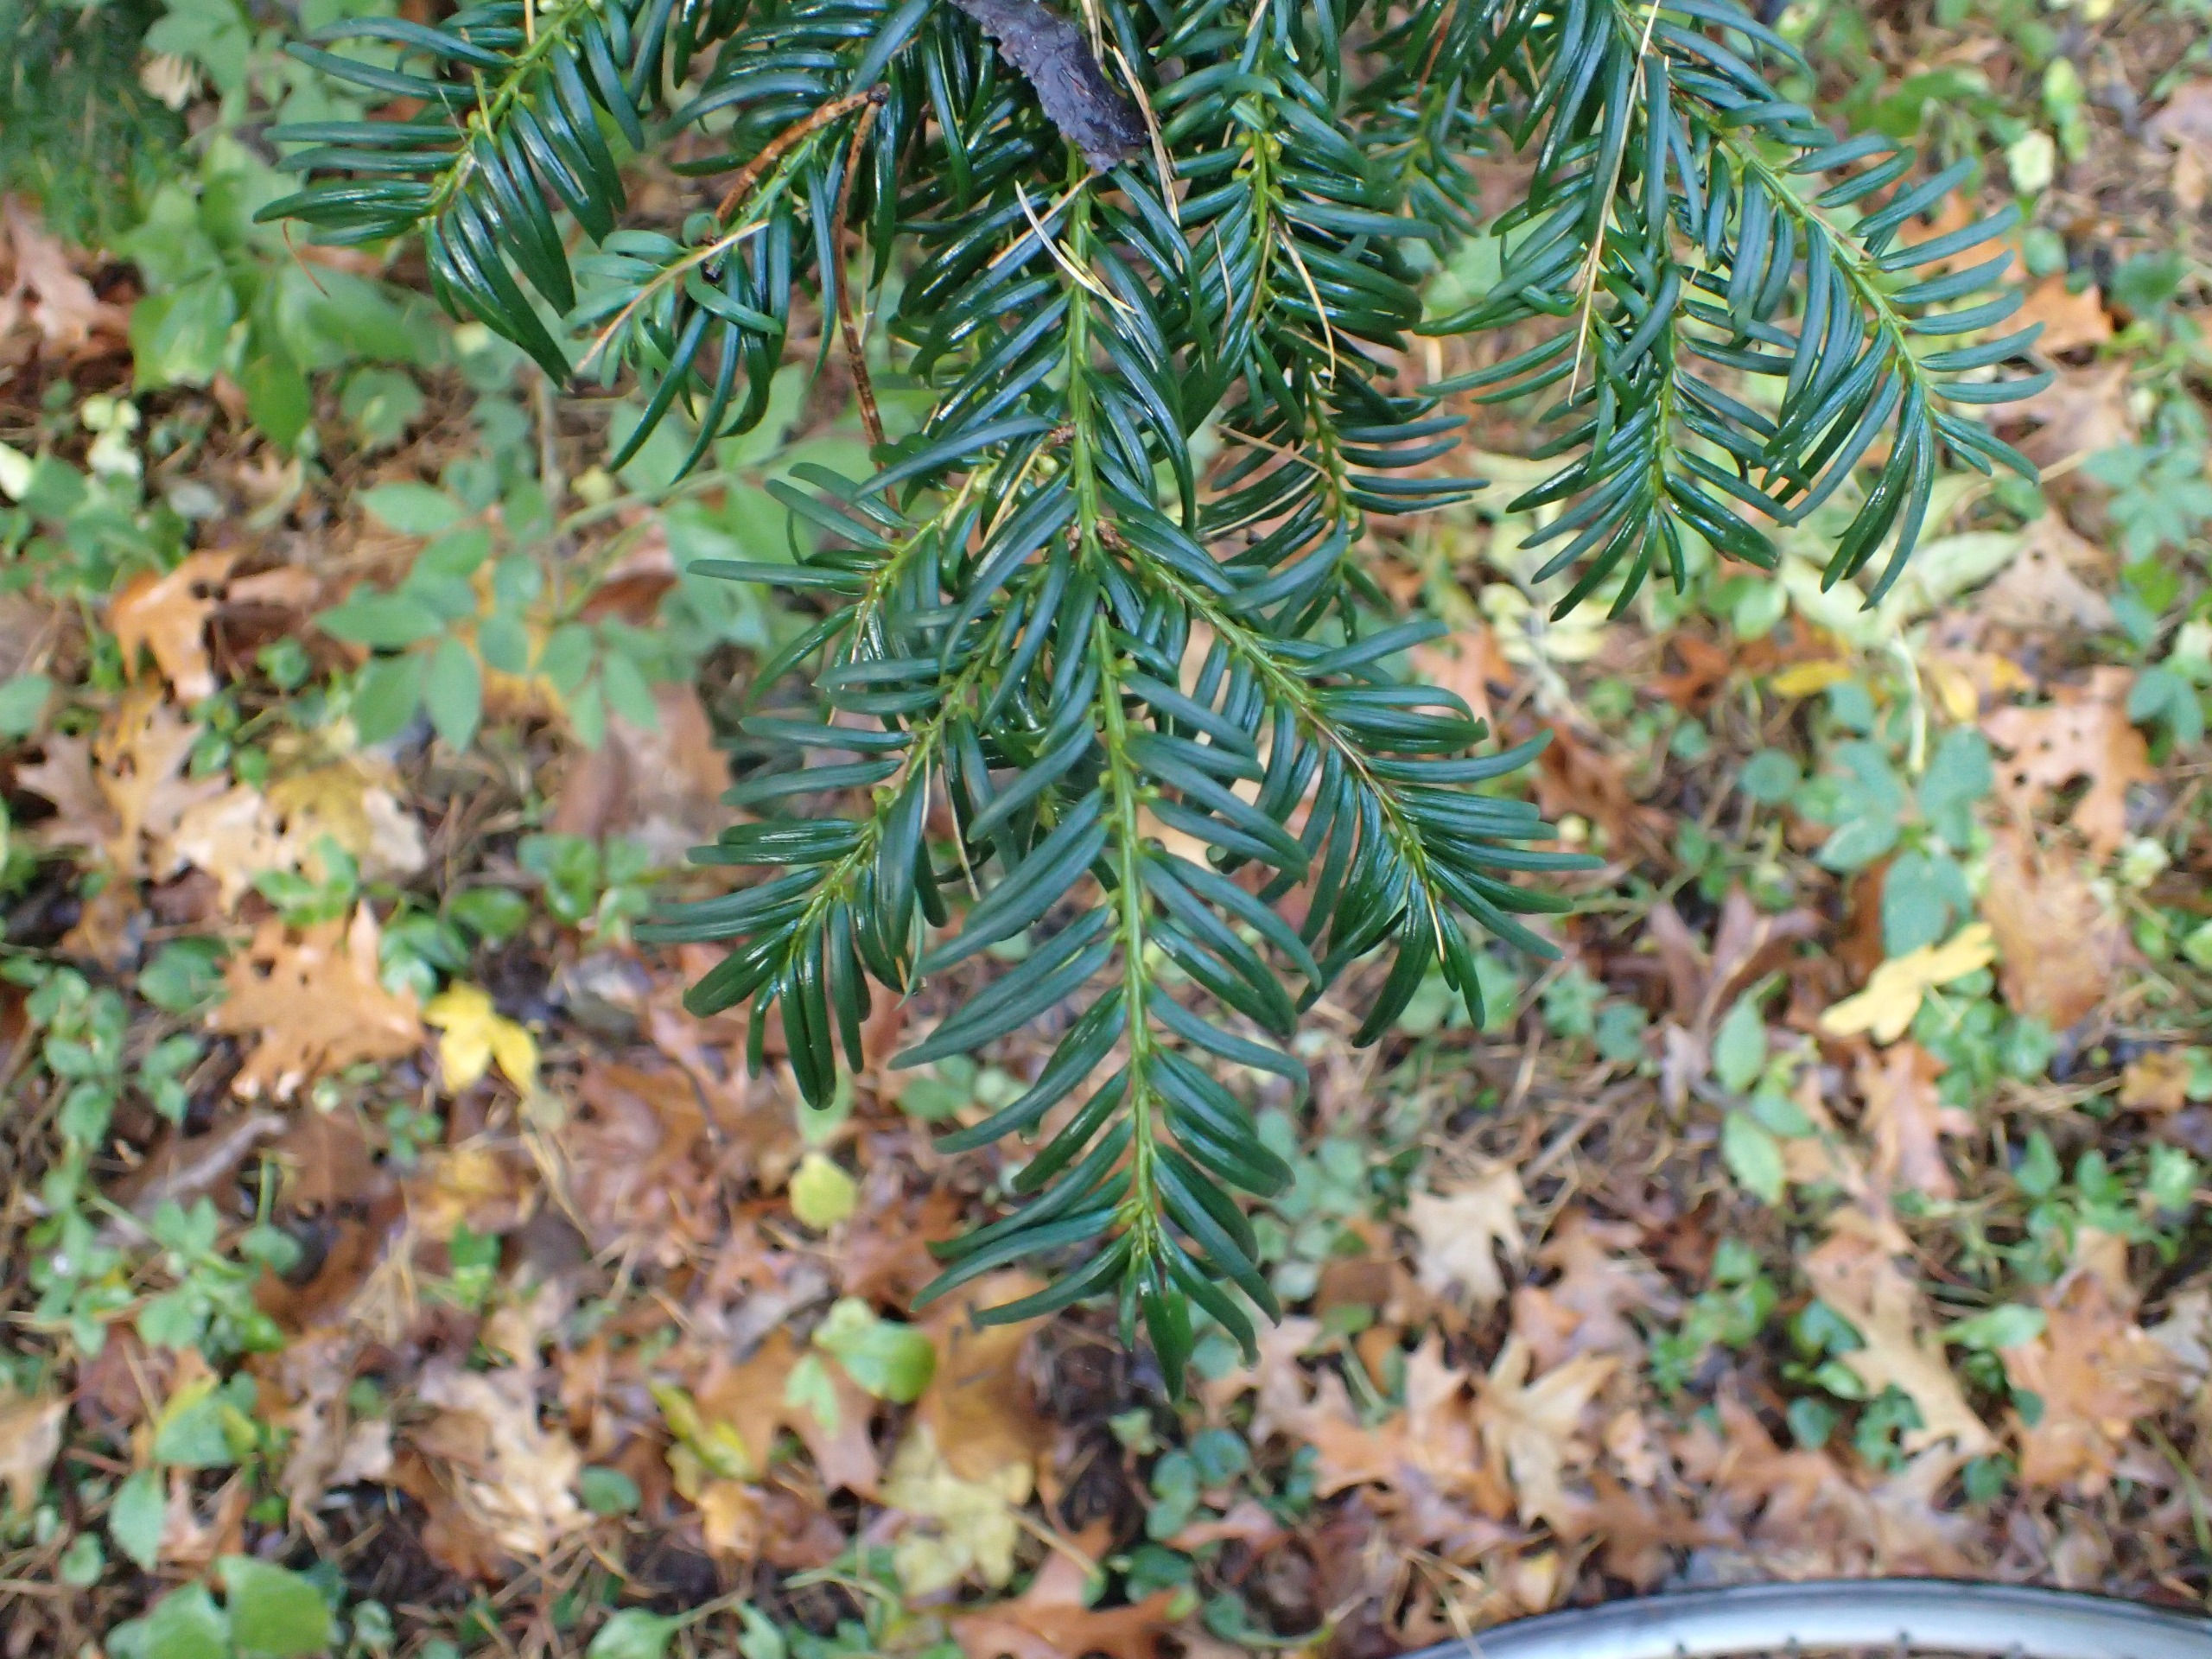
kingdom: Plantae
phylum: Tracheophyta
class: Pinopsida
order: Pinales
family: Taxaceae
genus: Taxus
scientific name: Taxus baccata
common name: Almindelig taks
